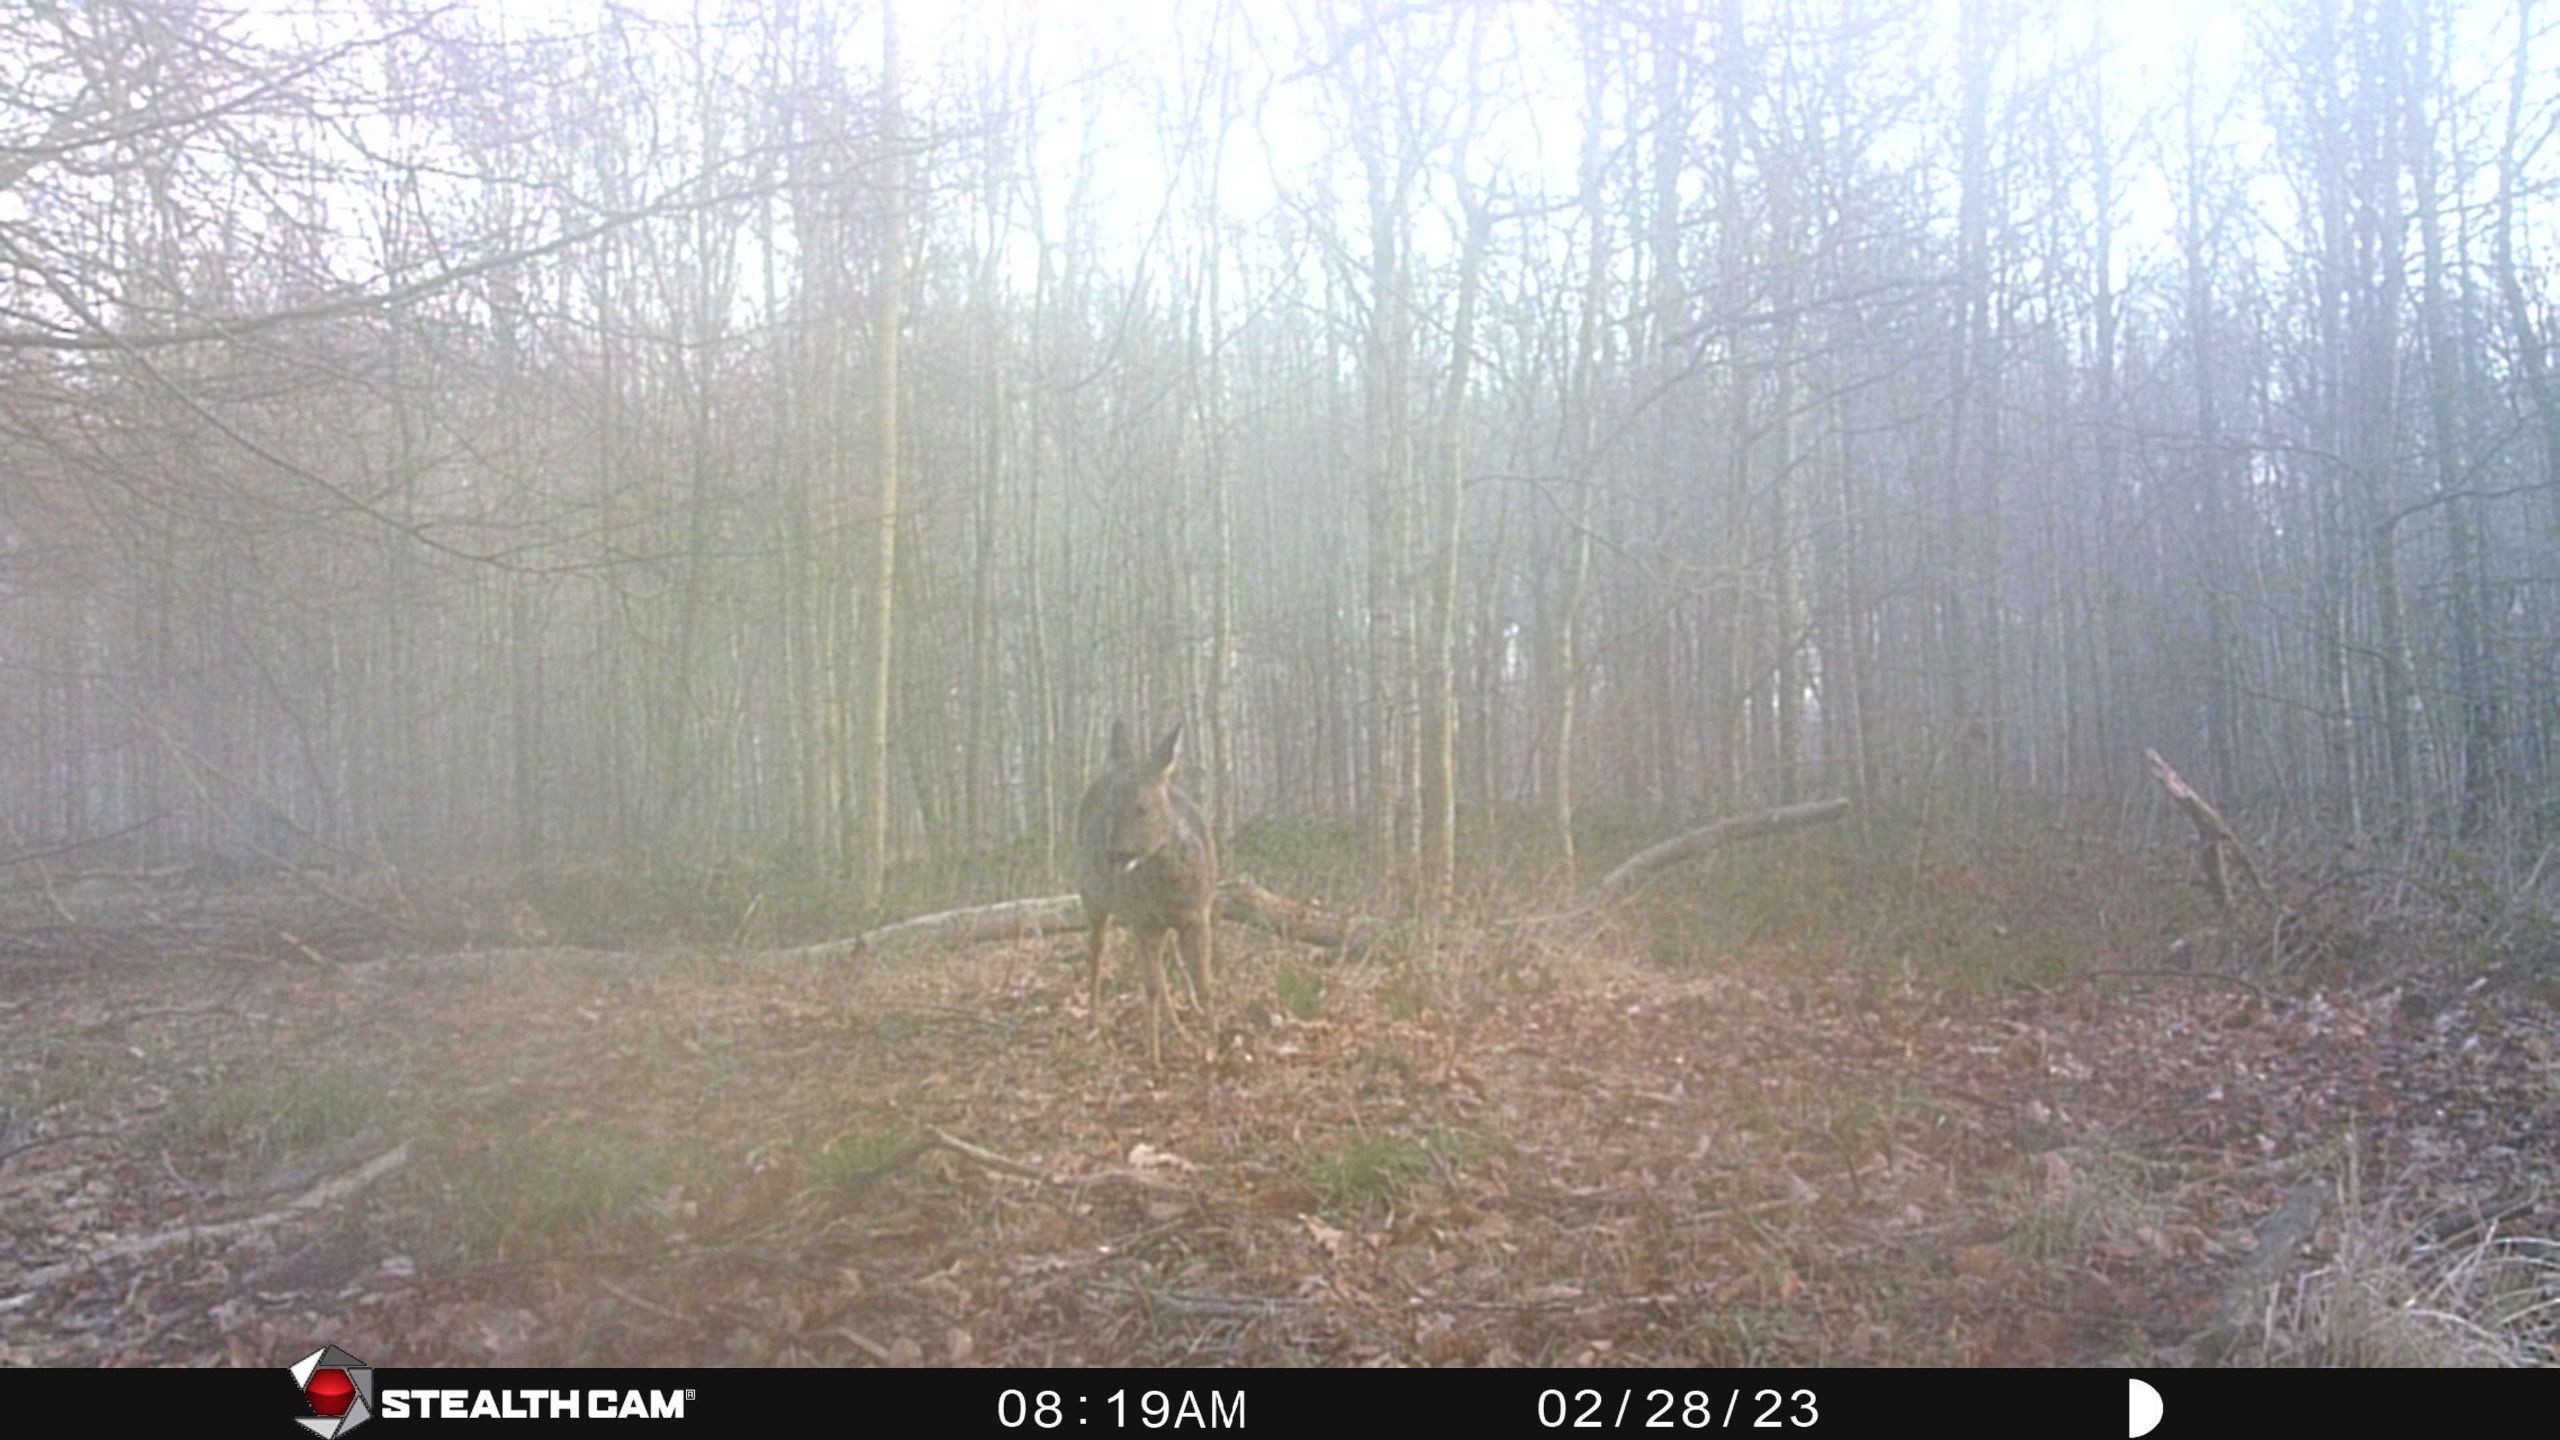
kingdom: Animalia
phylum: Chordata
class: Mammalia
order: Artiodactyla
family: Cervidae
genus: Capreolus
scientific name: Capreolus capreolus
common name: Rådyr
